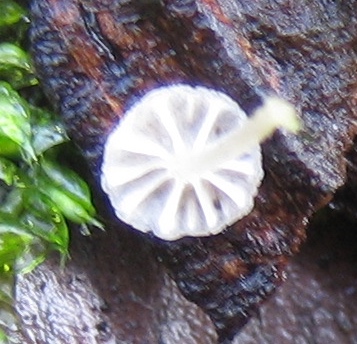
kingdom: Fungi
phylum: Basidiomycota
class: Agaricomycetes
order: Agaricales
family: Mycenaceae
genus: Mycena
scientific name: Mycena
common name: huesvamp
